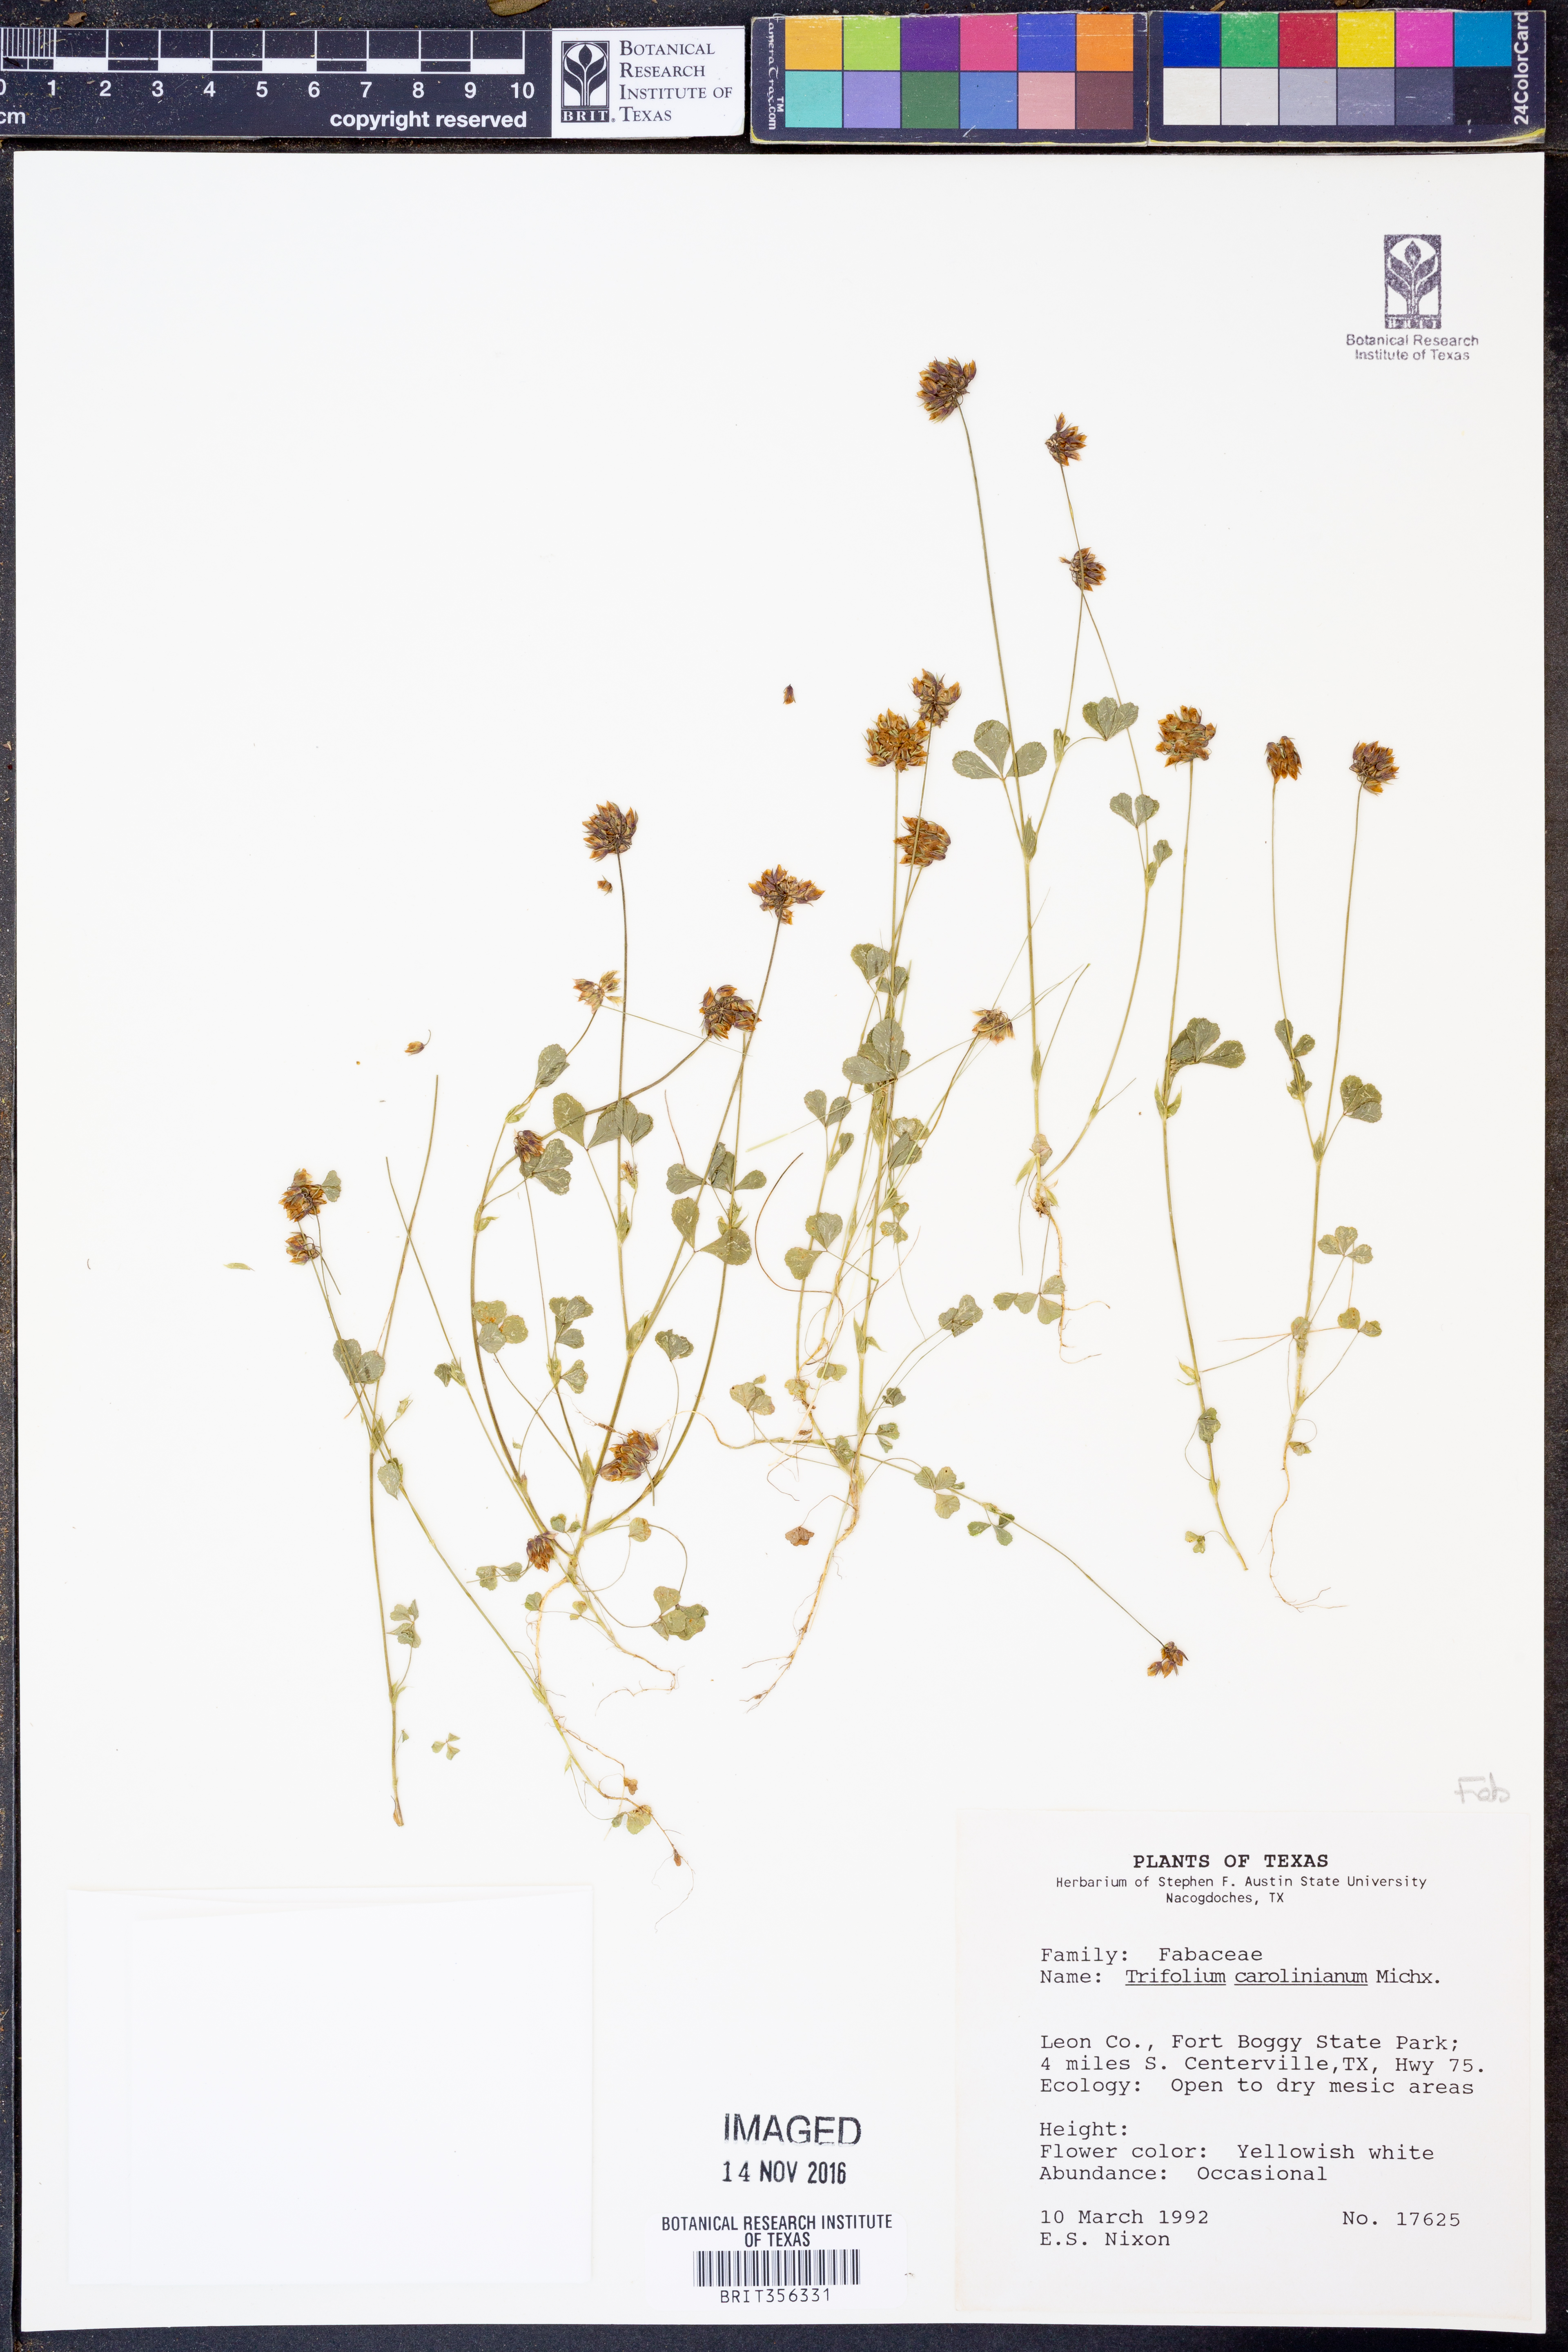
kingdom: Plantae
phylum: Tracheophyta
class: Magnoliopsida
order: Fabales
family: Fabaceae
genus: Trifolium
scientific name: Trifolium carolinianum
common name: Wild white clover
